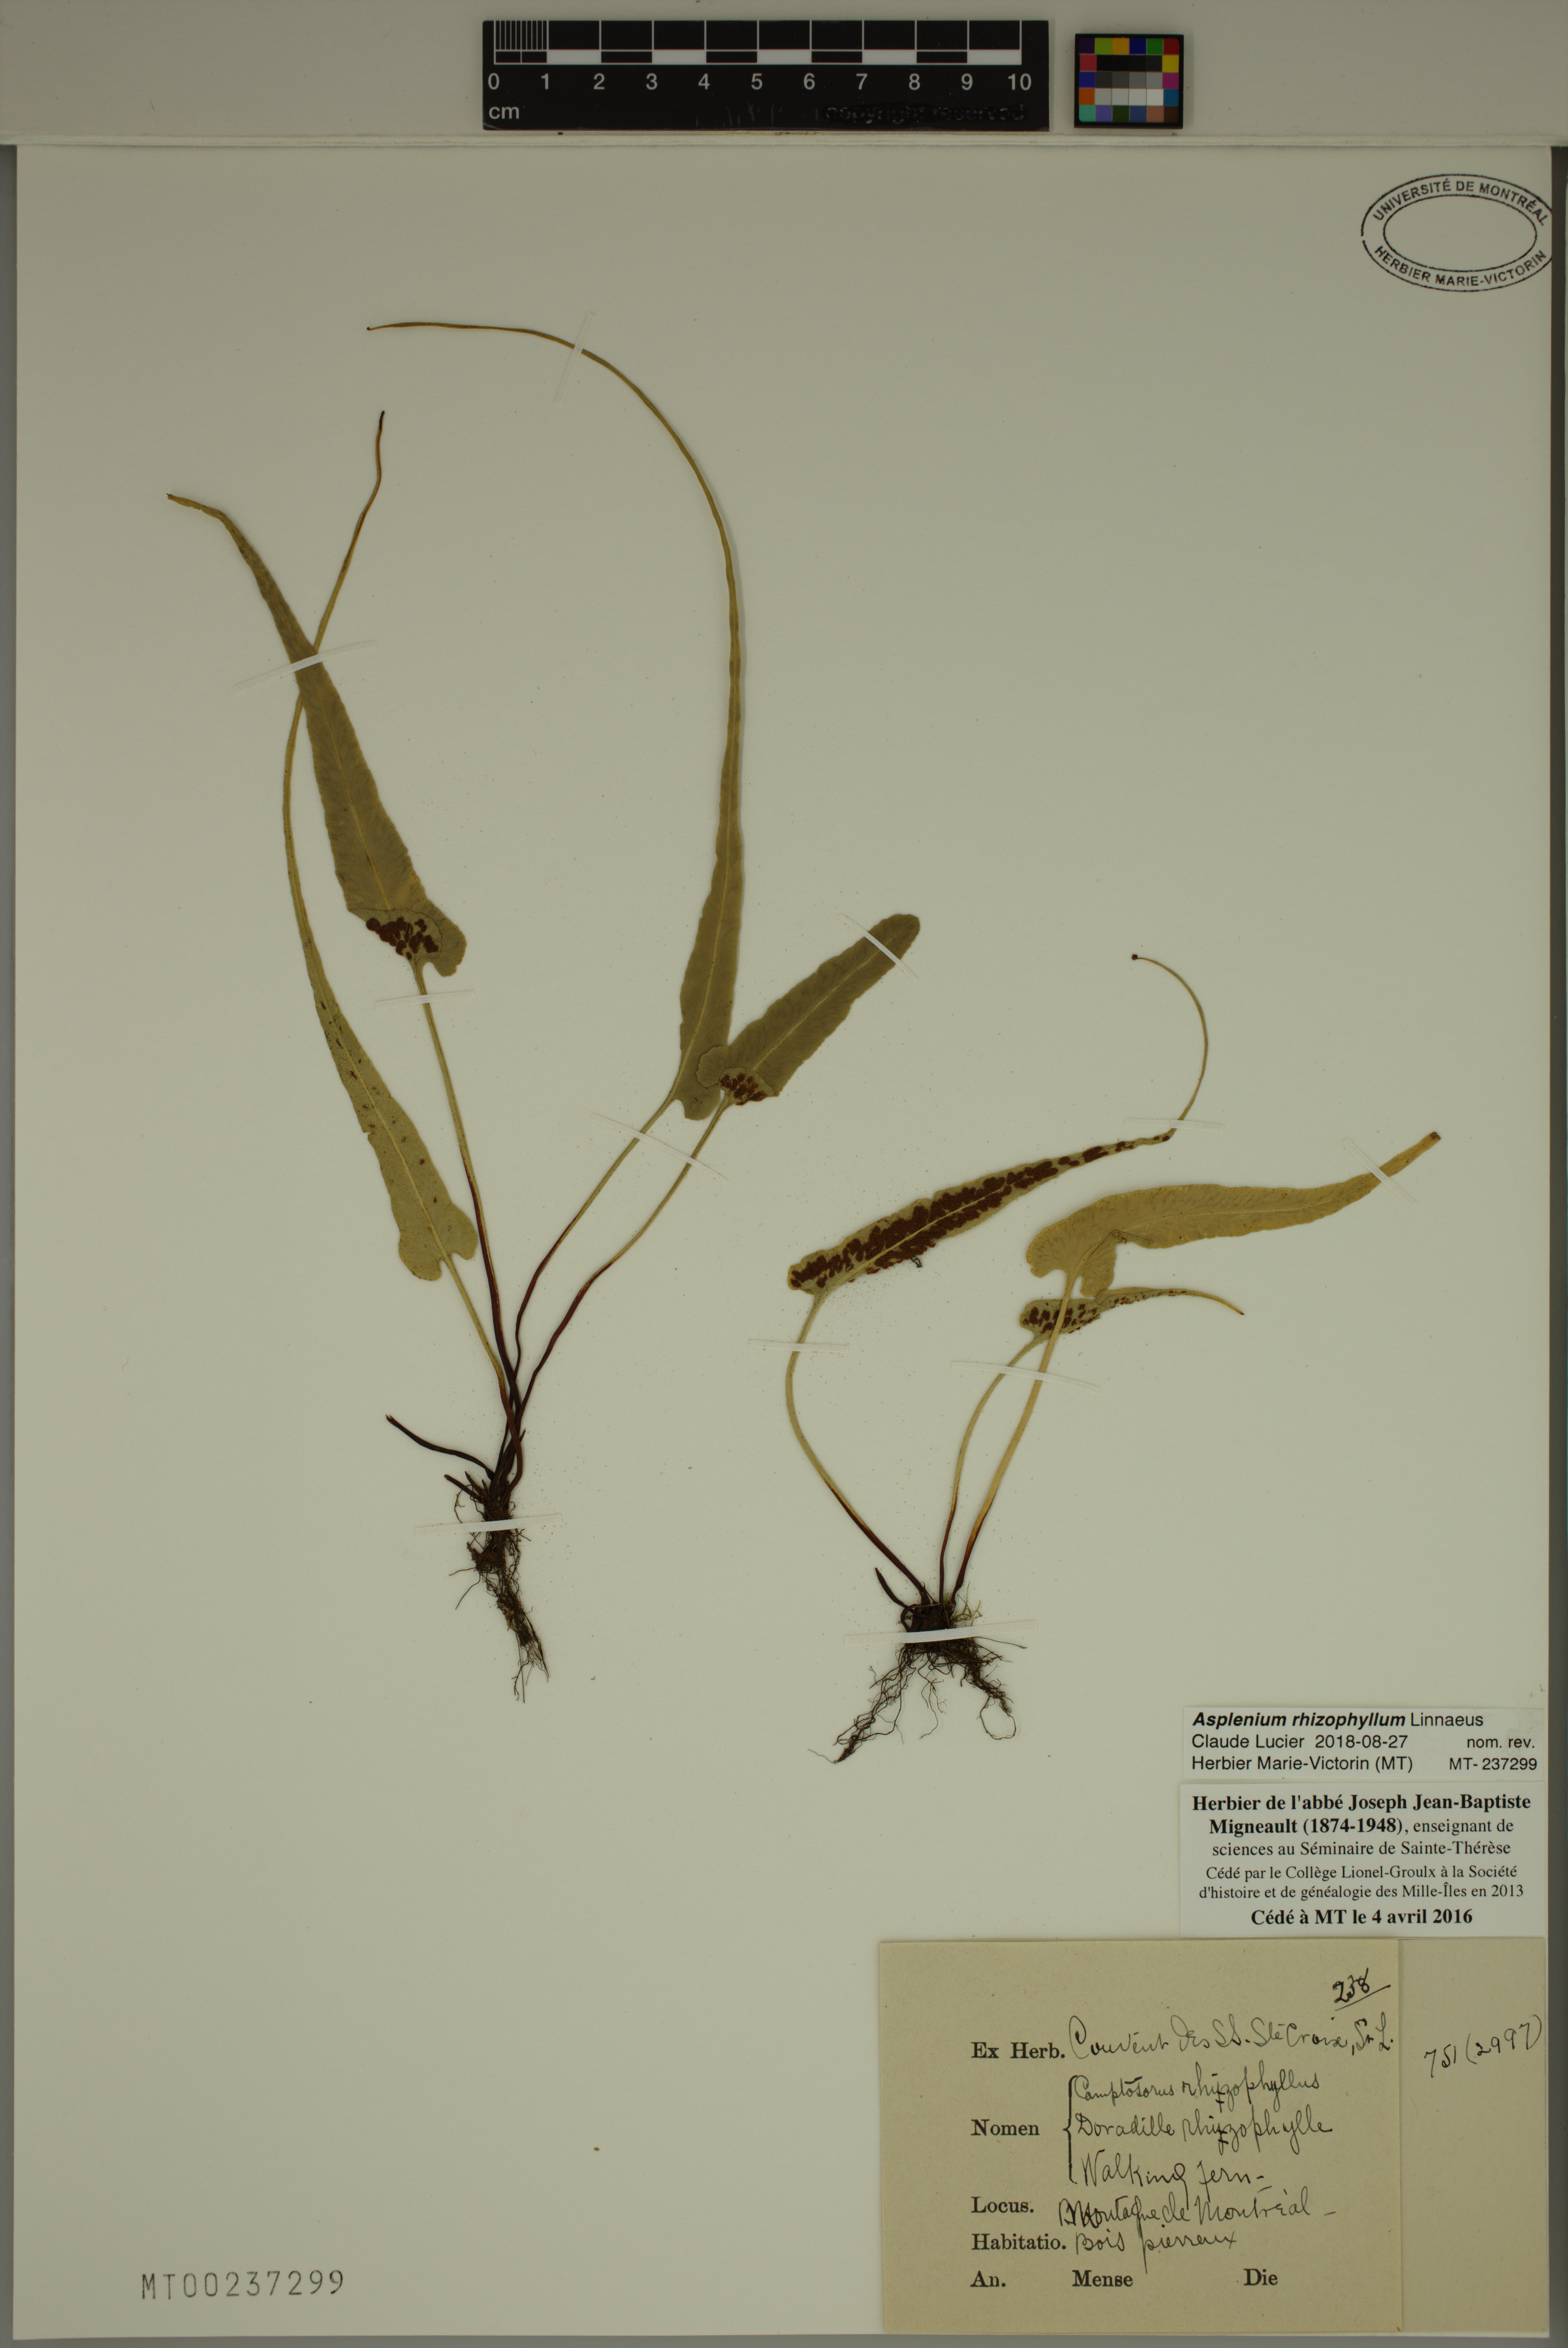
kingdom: Plantae
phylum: Tracheophyta
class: Polypodiopsida
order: Polypodiales
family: Aspleniaceae
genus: Asplenium
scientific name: Asplenium rhizophyllum
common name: Walking fern
